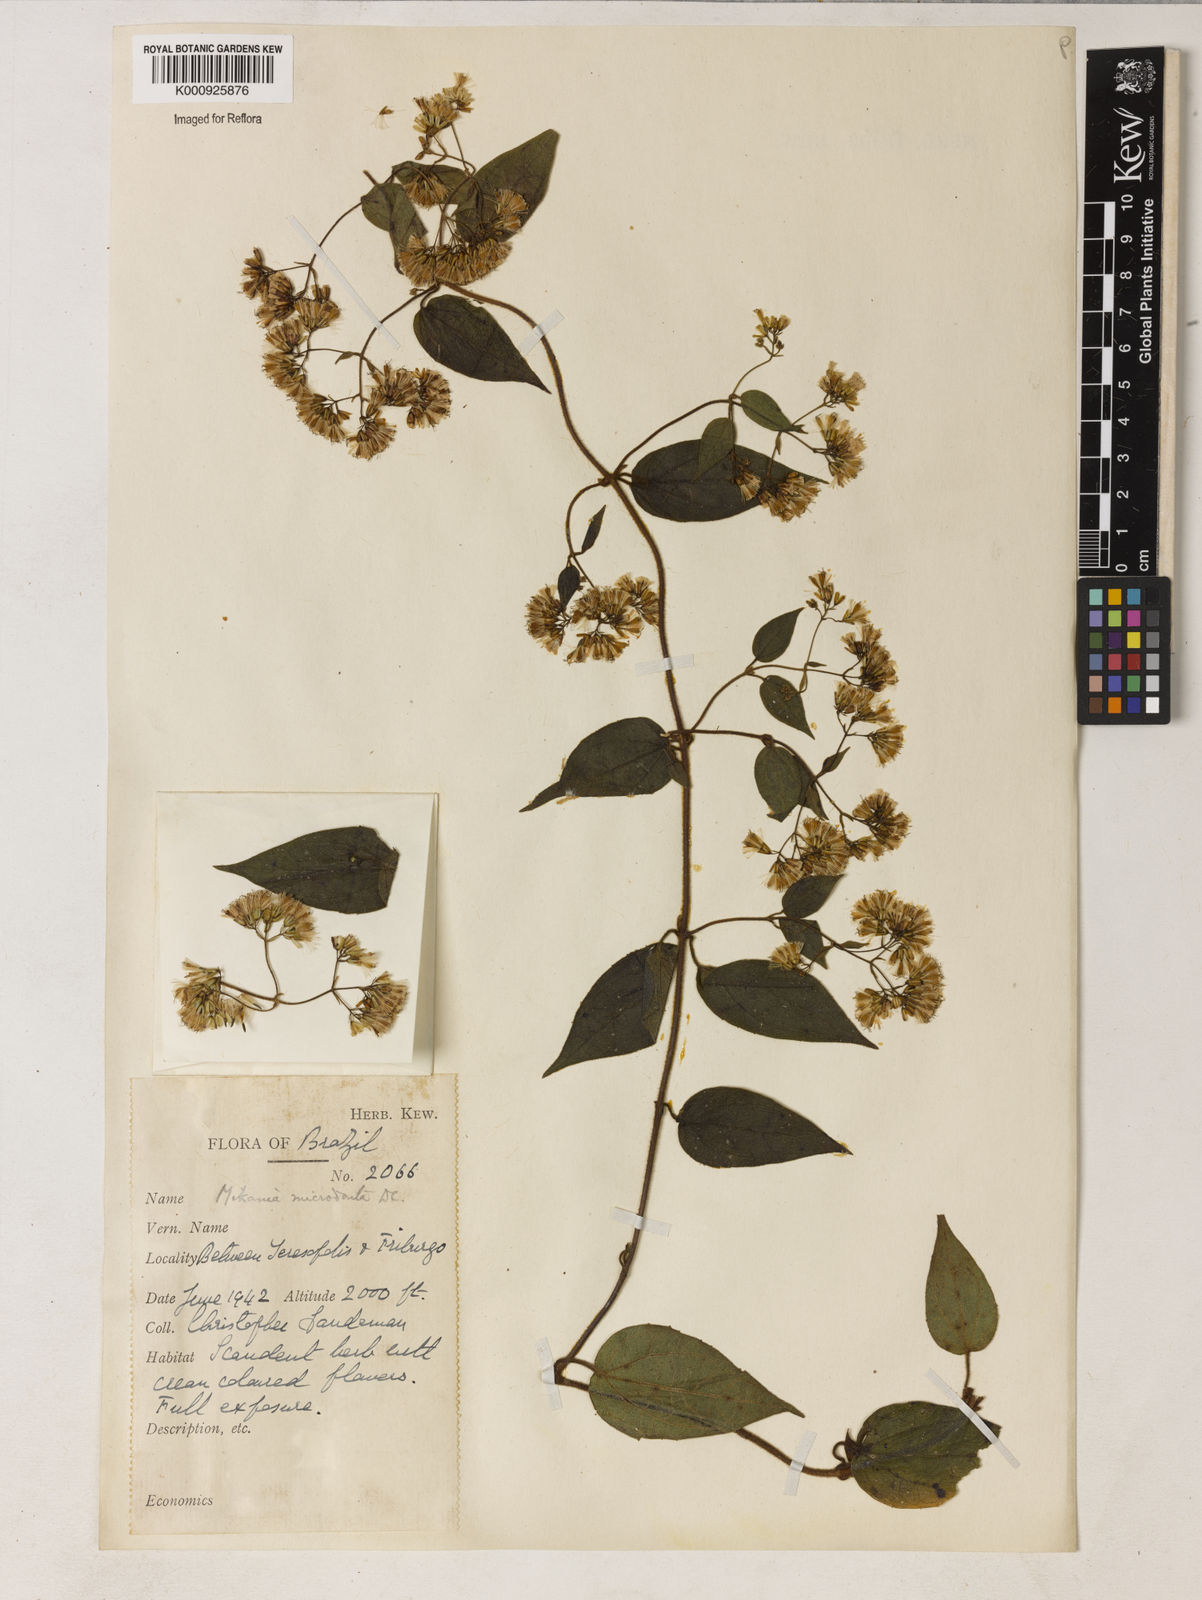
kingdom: Plantae
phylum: Tracheophyta
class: Magnoliopsida
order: Asterales
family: Asteraceae
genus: Mikania
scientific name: Mikania microdonta
